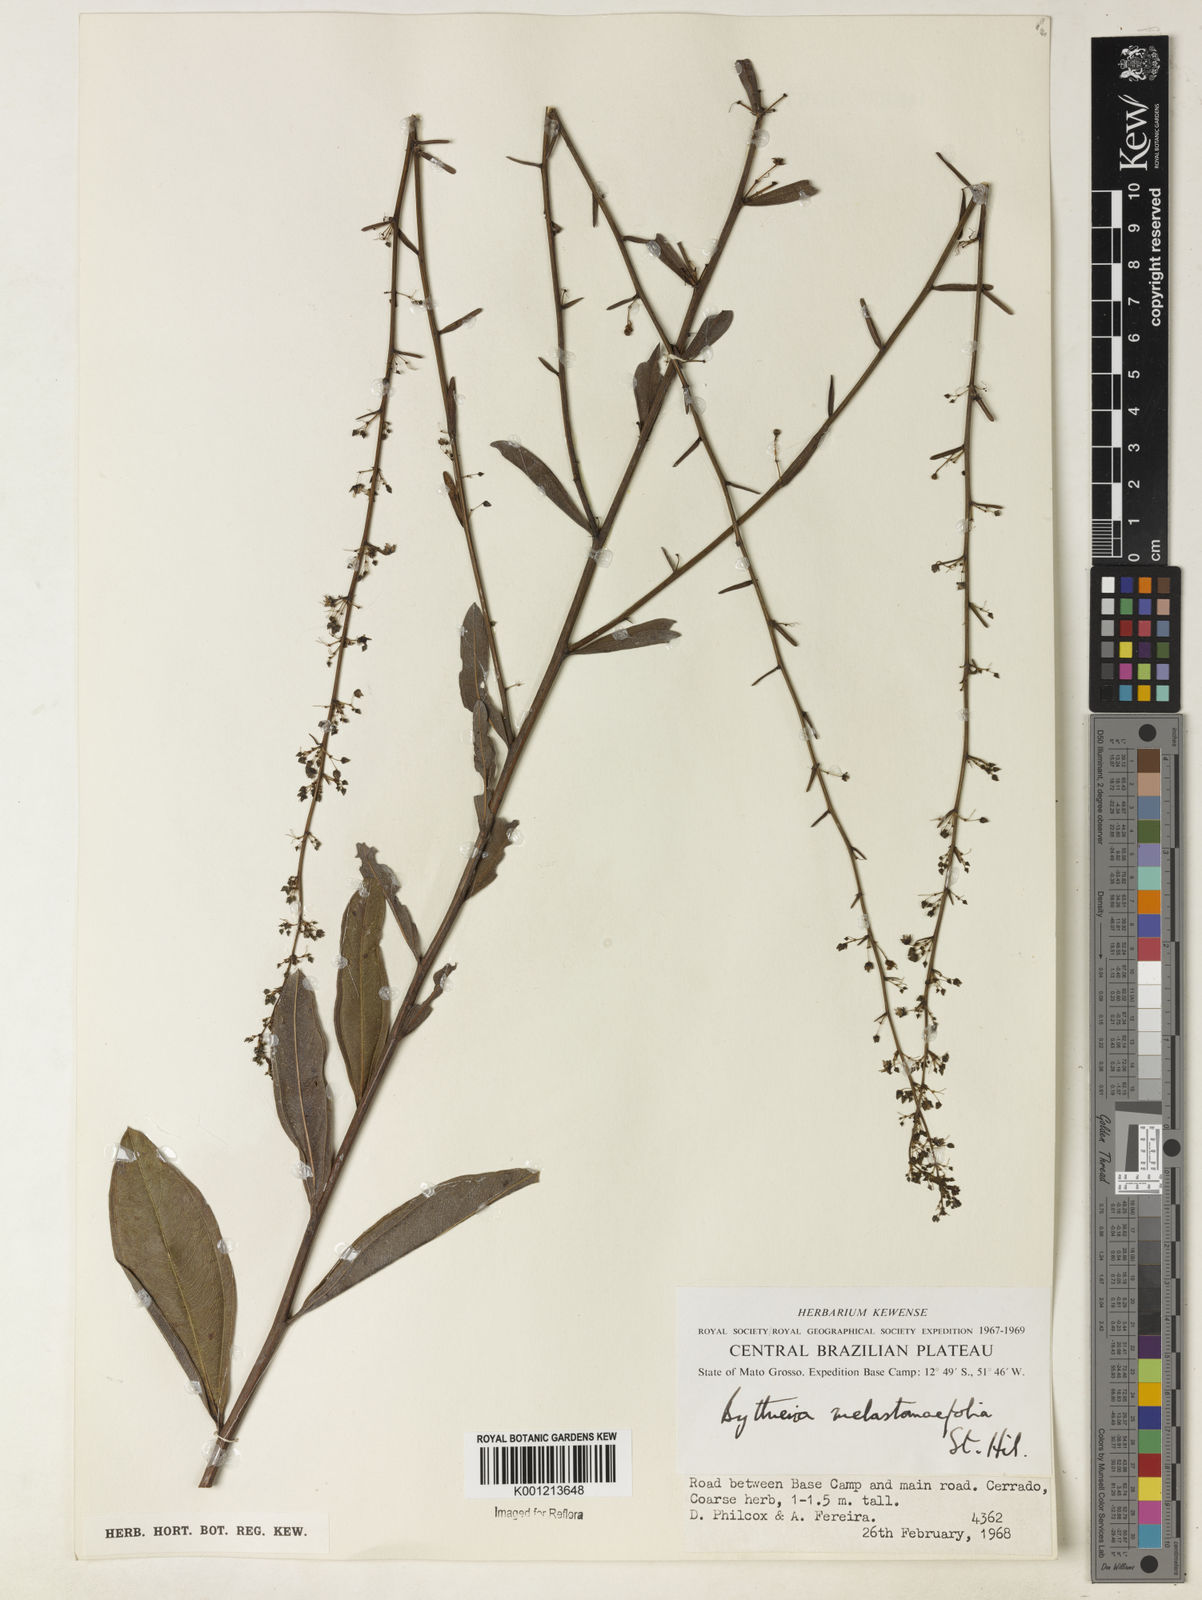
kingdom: Plantae
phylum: Tracheophyta
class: Magnoliopsida
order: Malvales
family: Malvaceae
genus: Byttneria
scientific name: Byttneria melastomifolia
